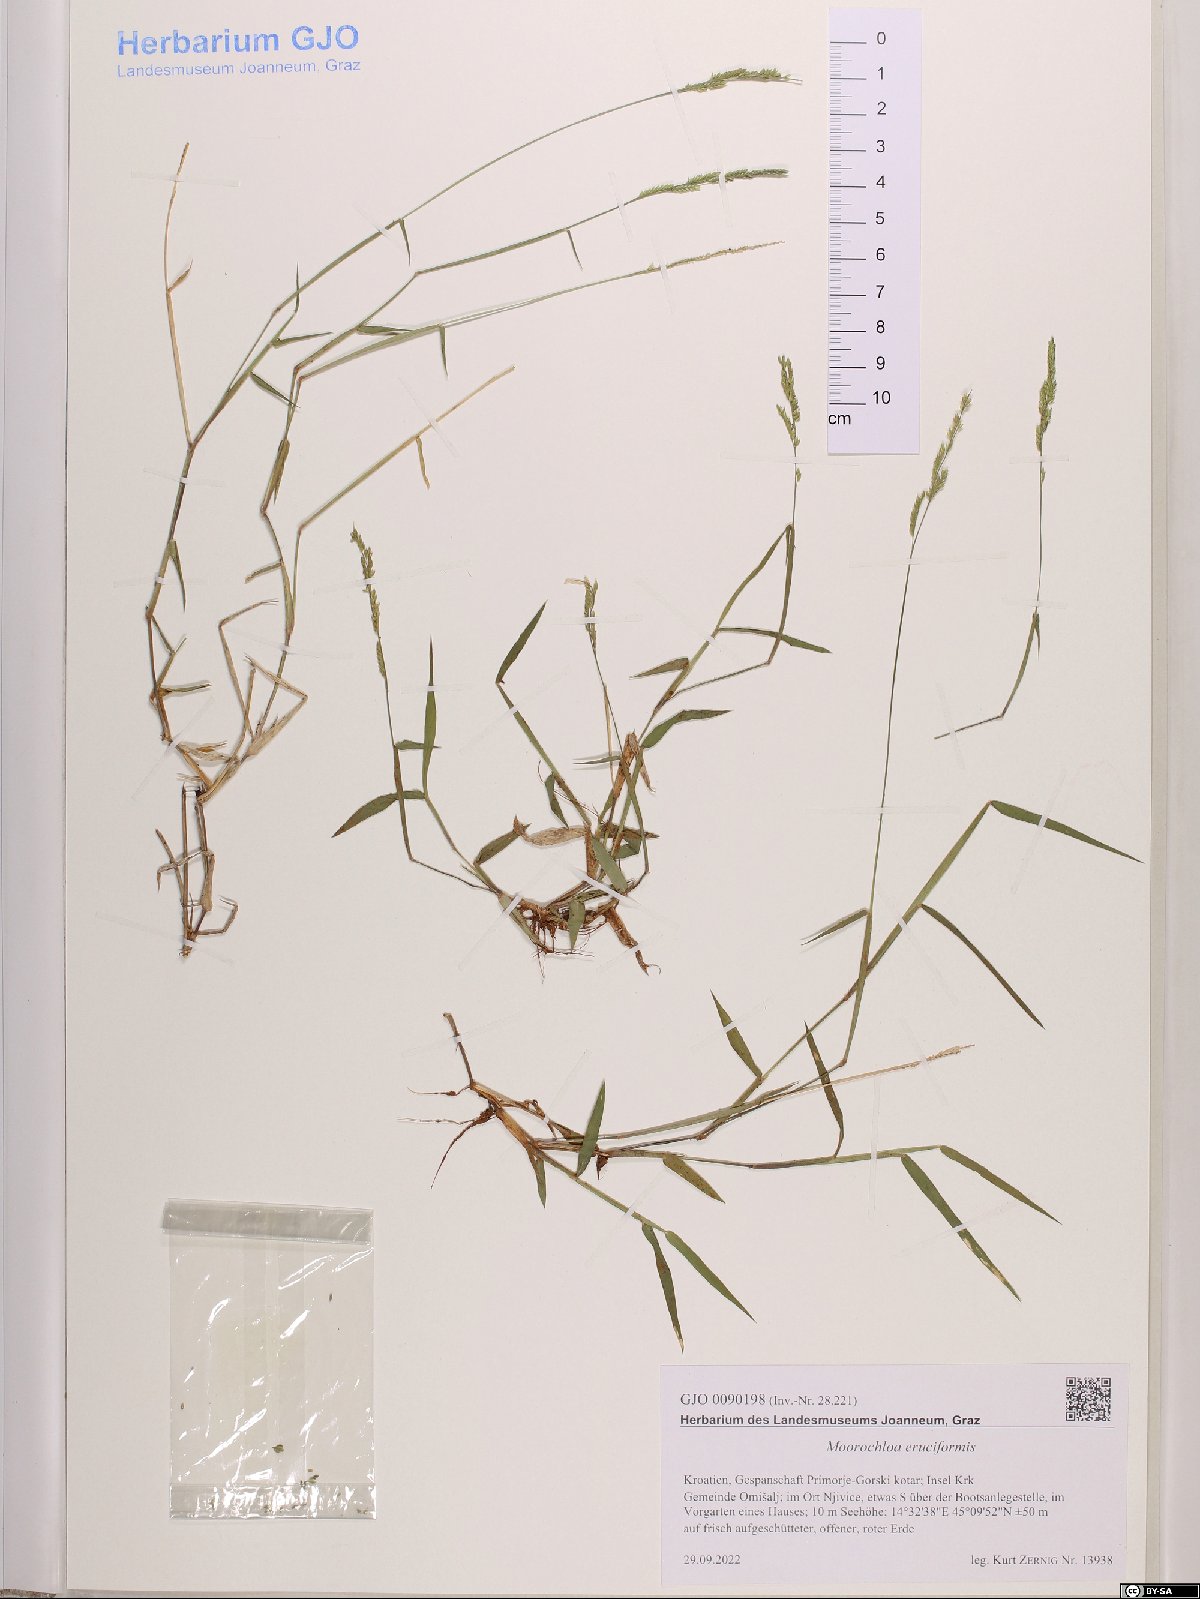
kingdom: Plantae
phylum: Tracheophyta
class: Liliopsida
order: Poales
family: Poaceae
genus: Moorochloa
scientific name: Moorochloa eruciformis
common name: Sweet signalgrass
